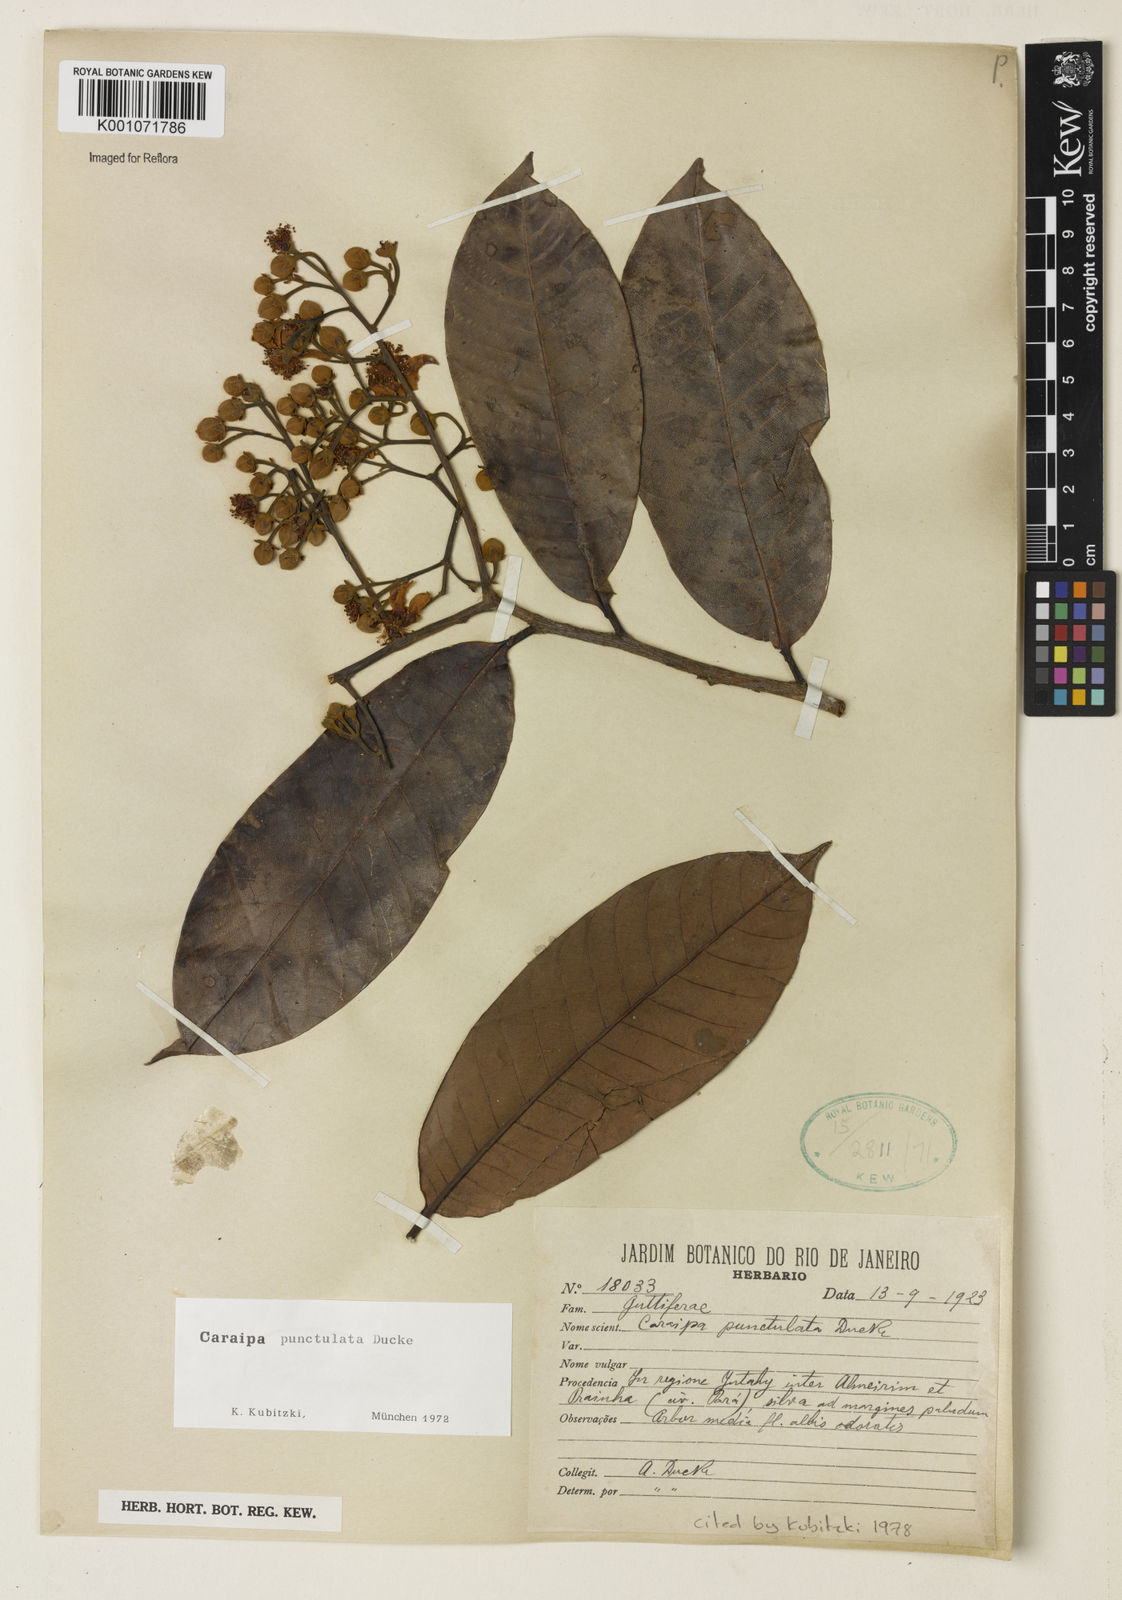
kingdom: Plantae
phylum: Tracheophyta
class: Magnoliopsida
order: Malpighiales
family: Calophyllaceae
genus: Caraipa
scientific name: Caraipa punctulata
